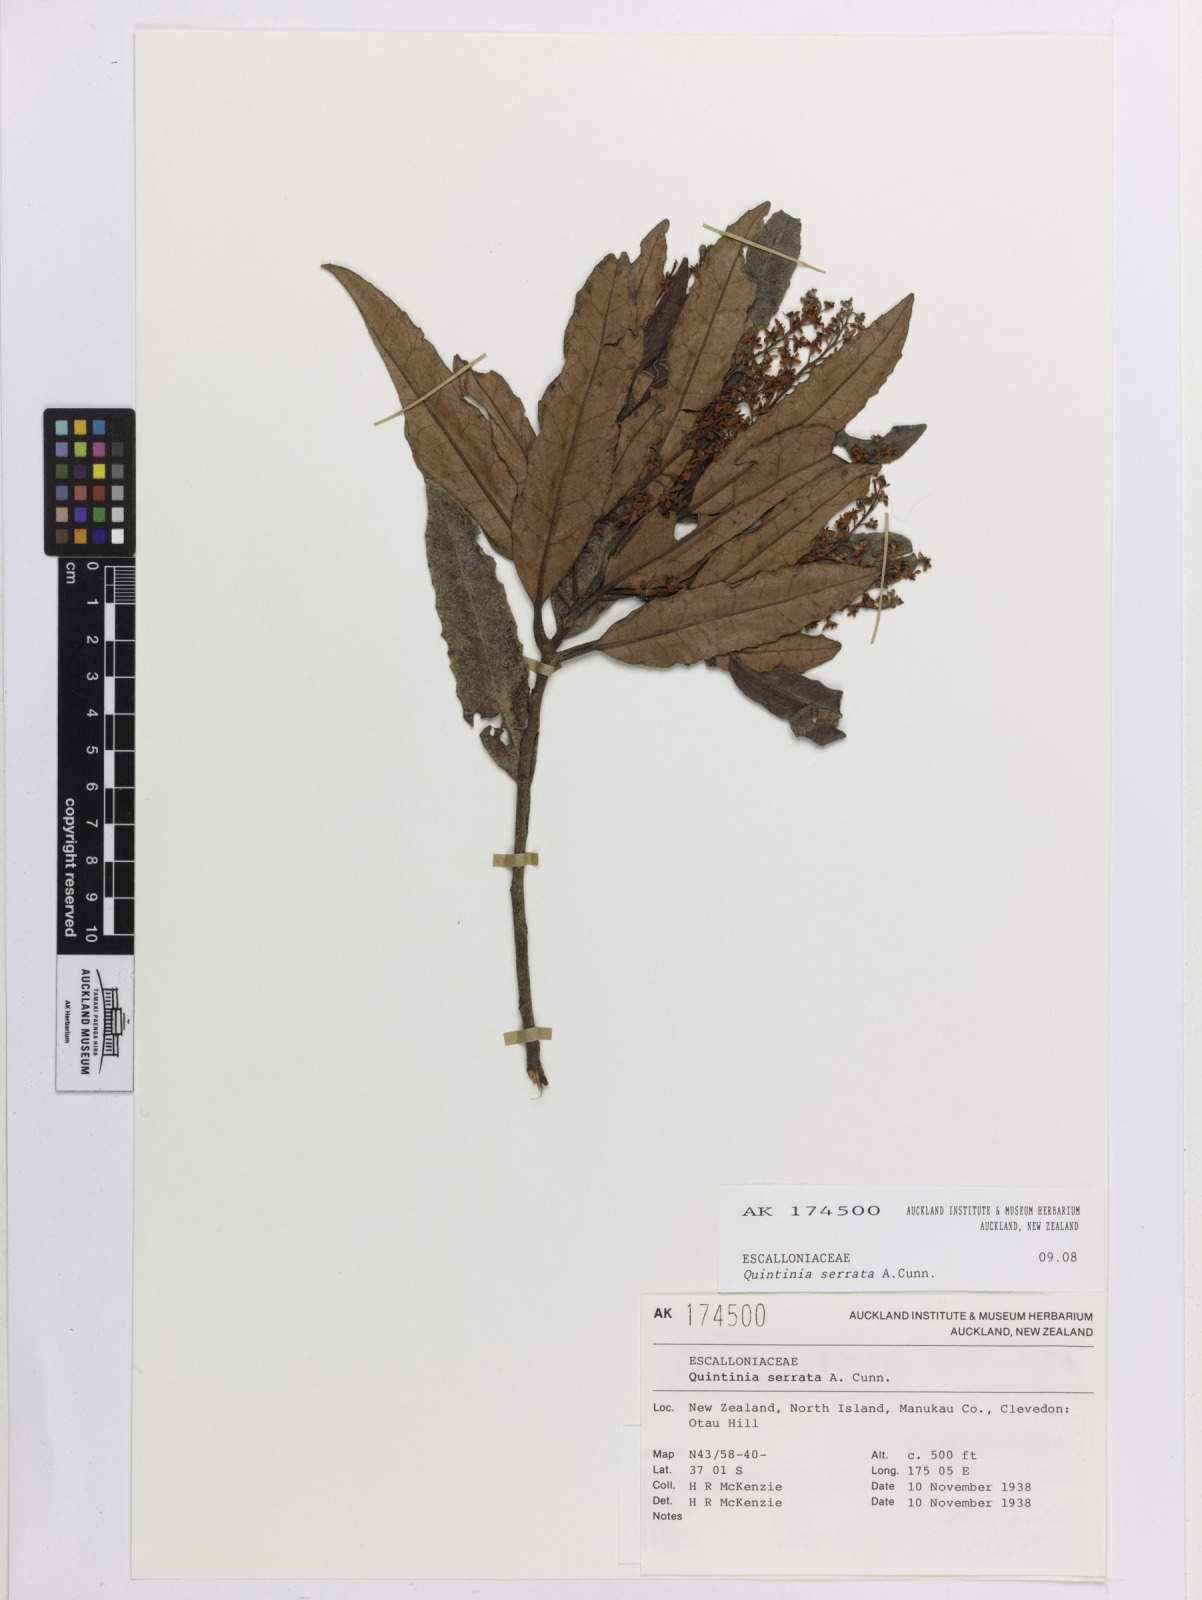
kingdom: Plantae
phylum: Tracheophyta
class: Magnoliopsida
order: Paracryphiales
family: Paracryphiaceae
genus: Quintinia
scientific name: Quintinia serrata
